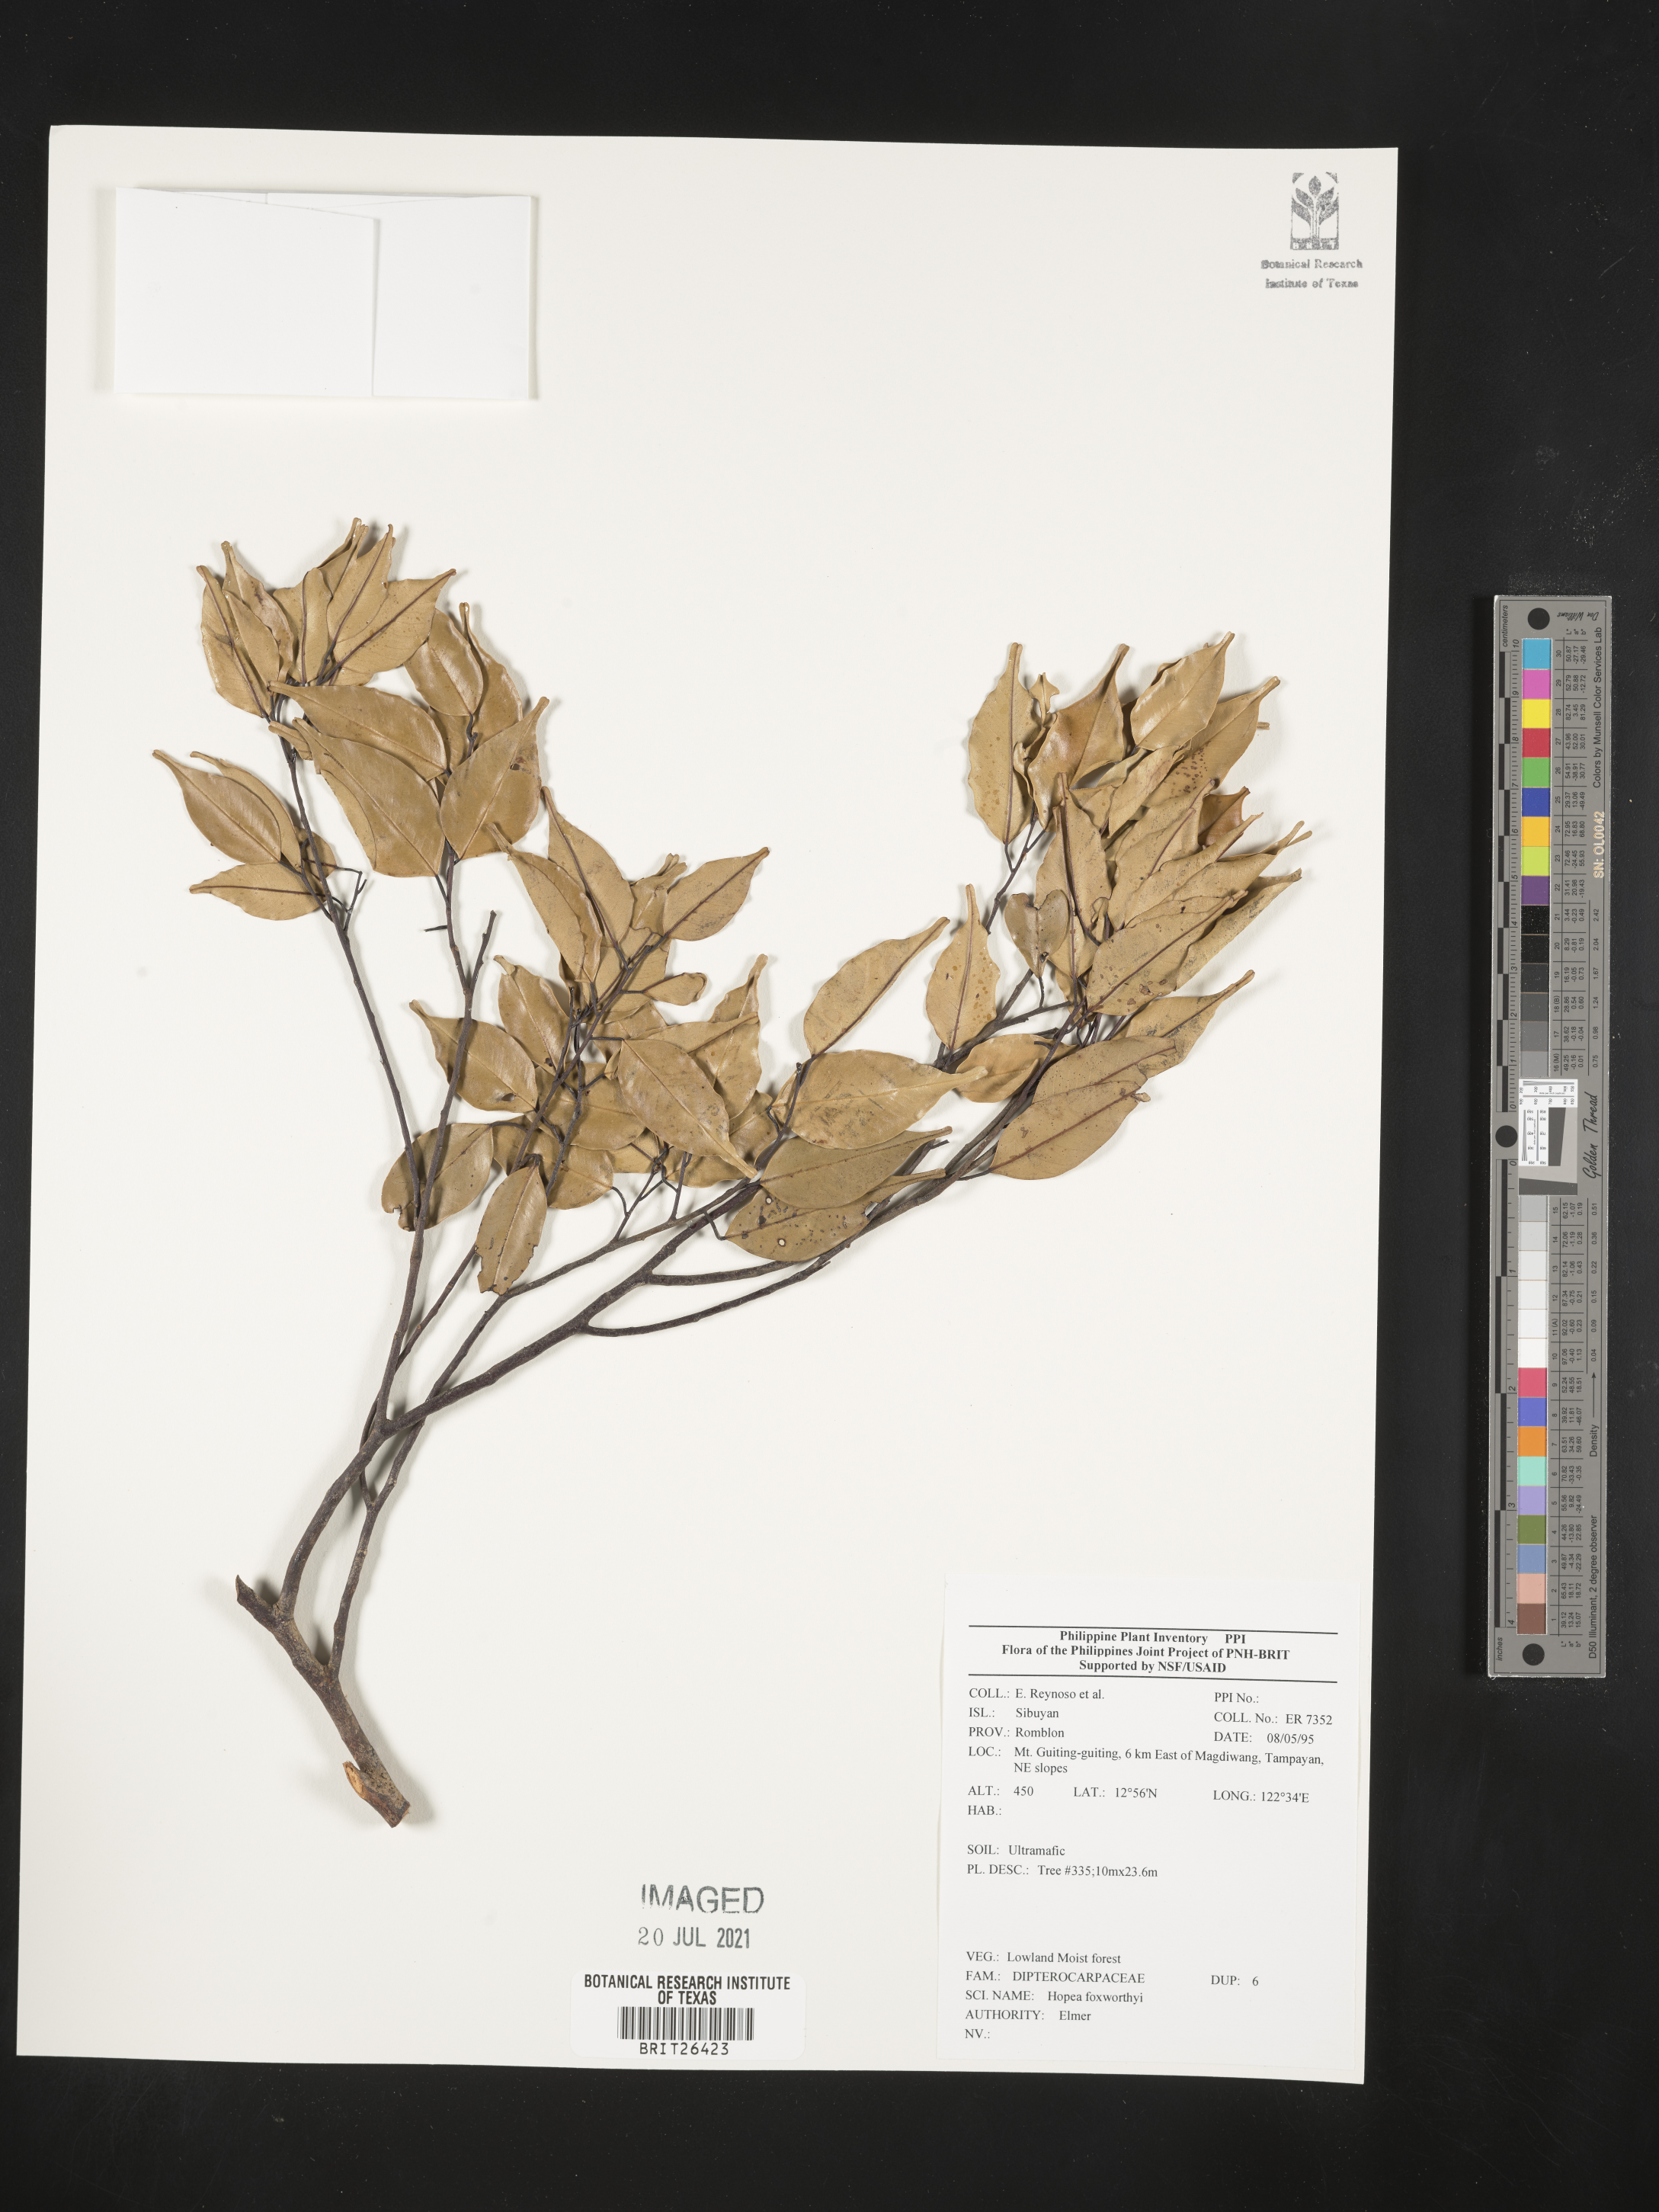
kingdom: Plantae
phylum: Tracheophyta
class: Magnoliopsida
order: Malvales
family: Dipterocarpaceae
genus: Hopea
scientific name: Hopea foxworthyi
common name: Dalingdingan
